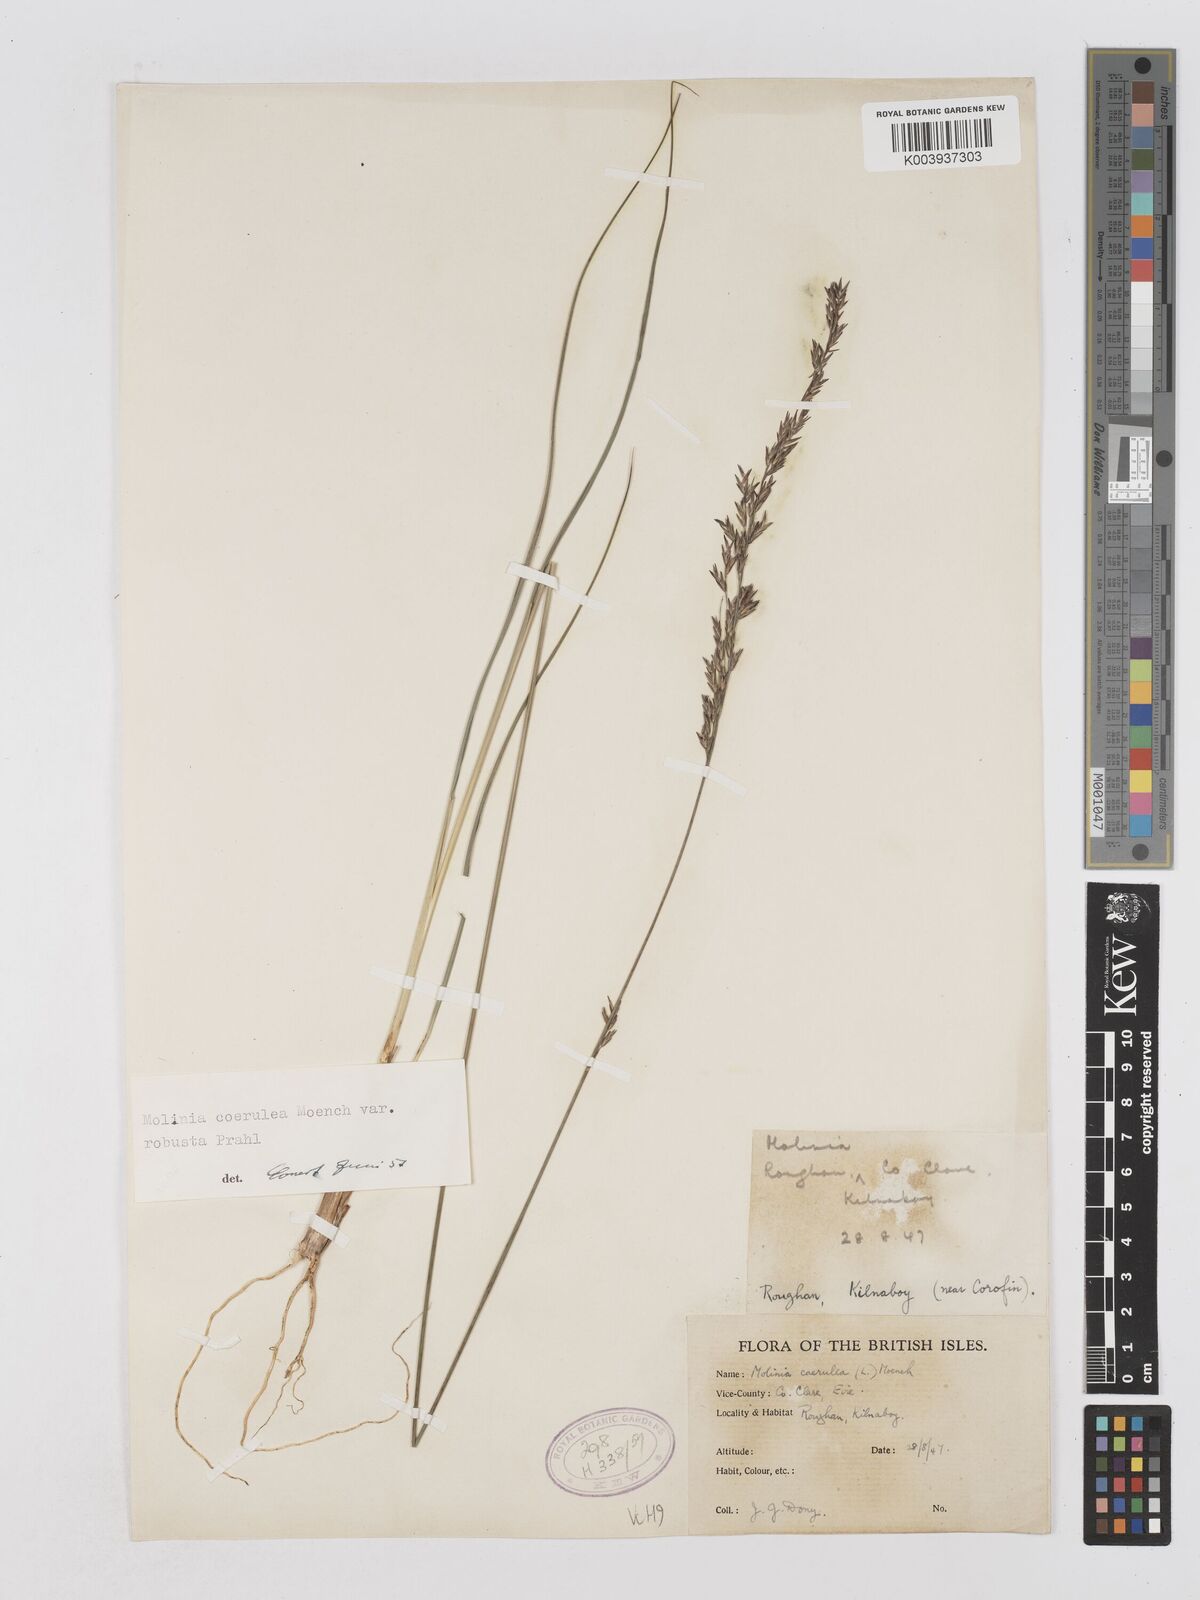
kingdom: Plantae
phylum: Tracheophyta
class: Liliopsida
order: Poales
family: Poaceae
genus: Molinia
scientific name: Molinia caerulea
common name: Purple moor-grass
